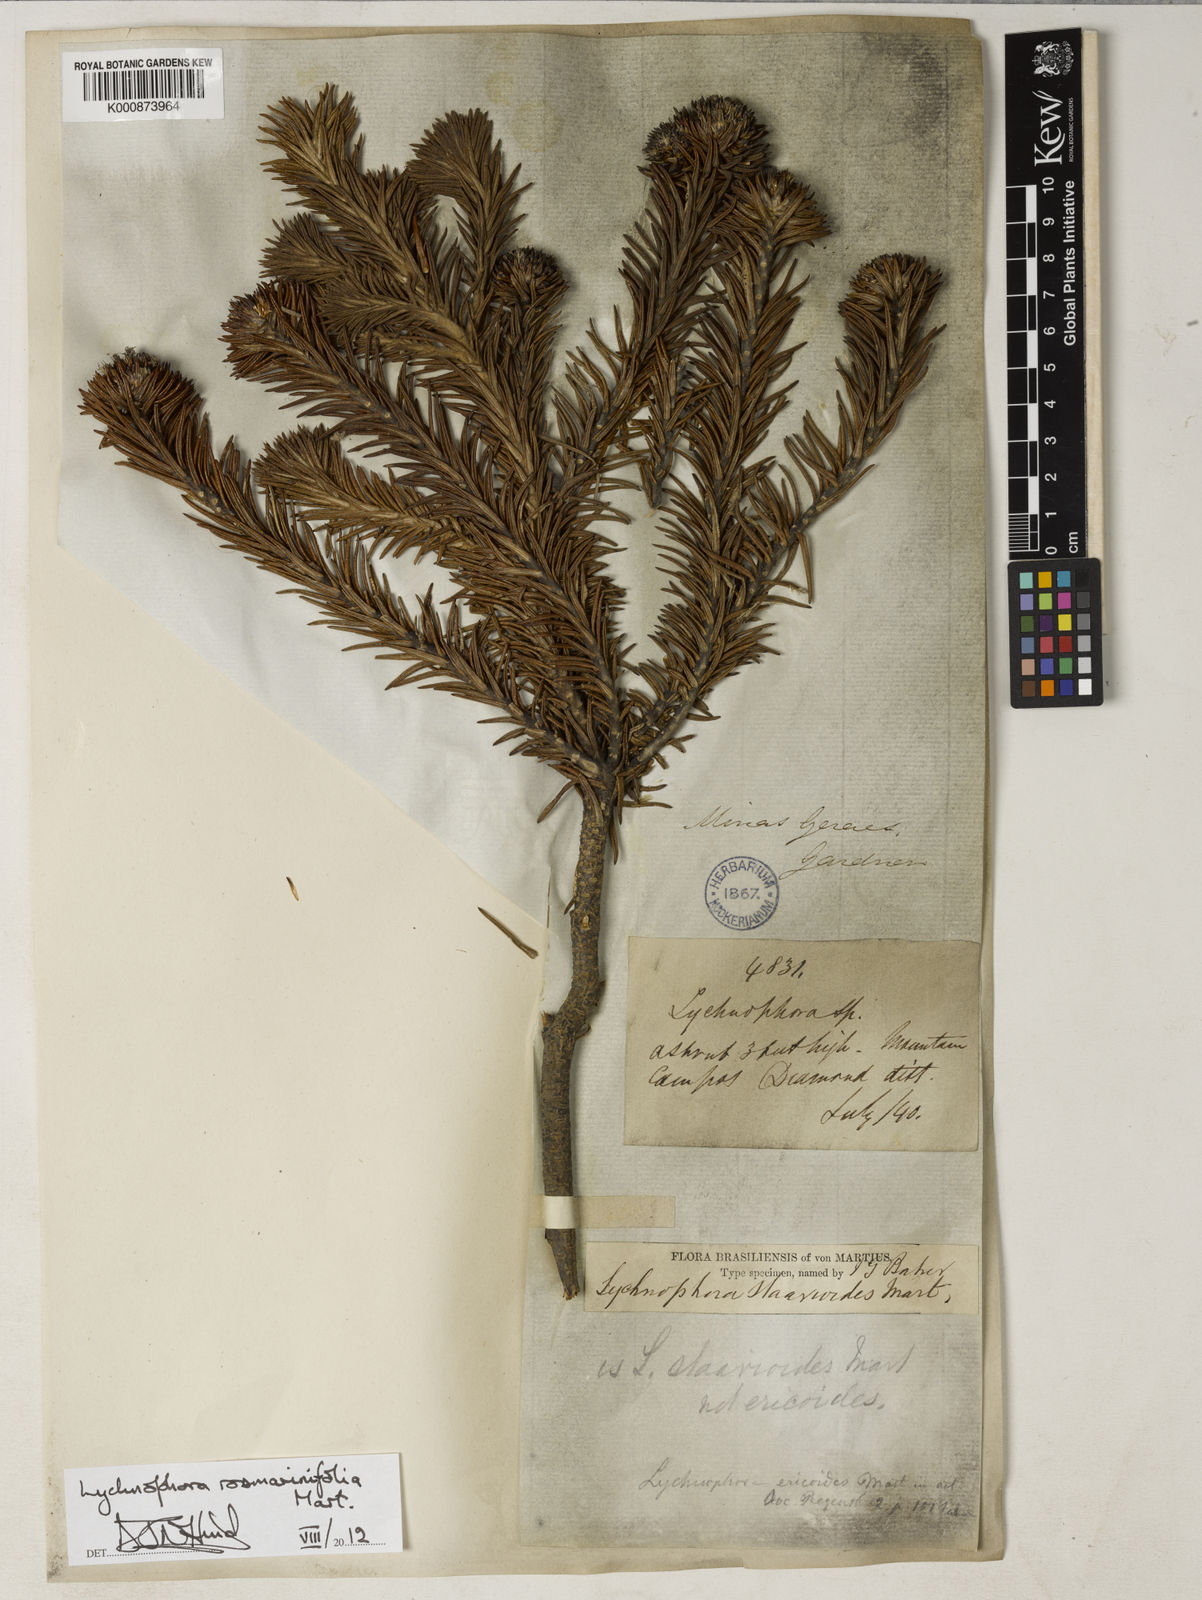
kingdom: Plantae
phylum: Tracheophyta
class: Magnoliopsida
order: Asterales
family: Asteraceae
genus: Lychnophora
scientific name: Lychnophora rosmarinifolia
